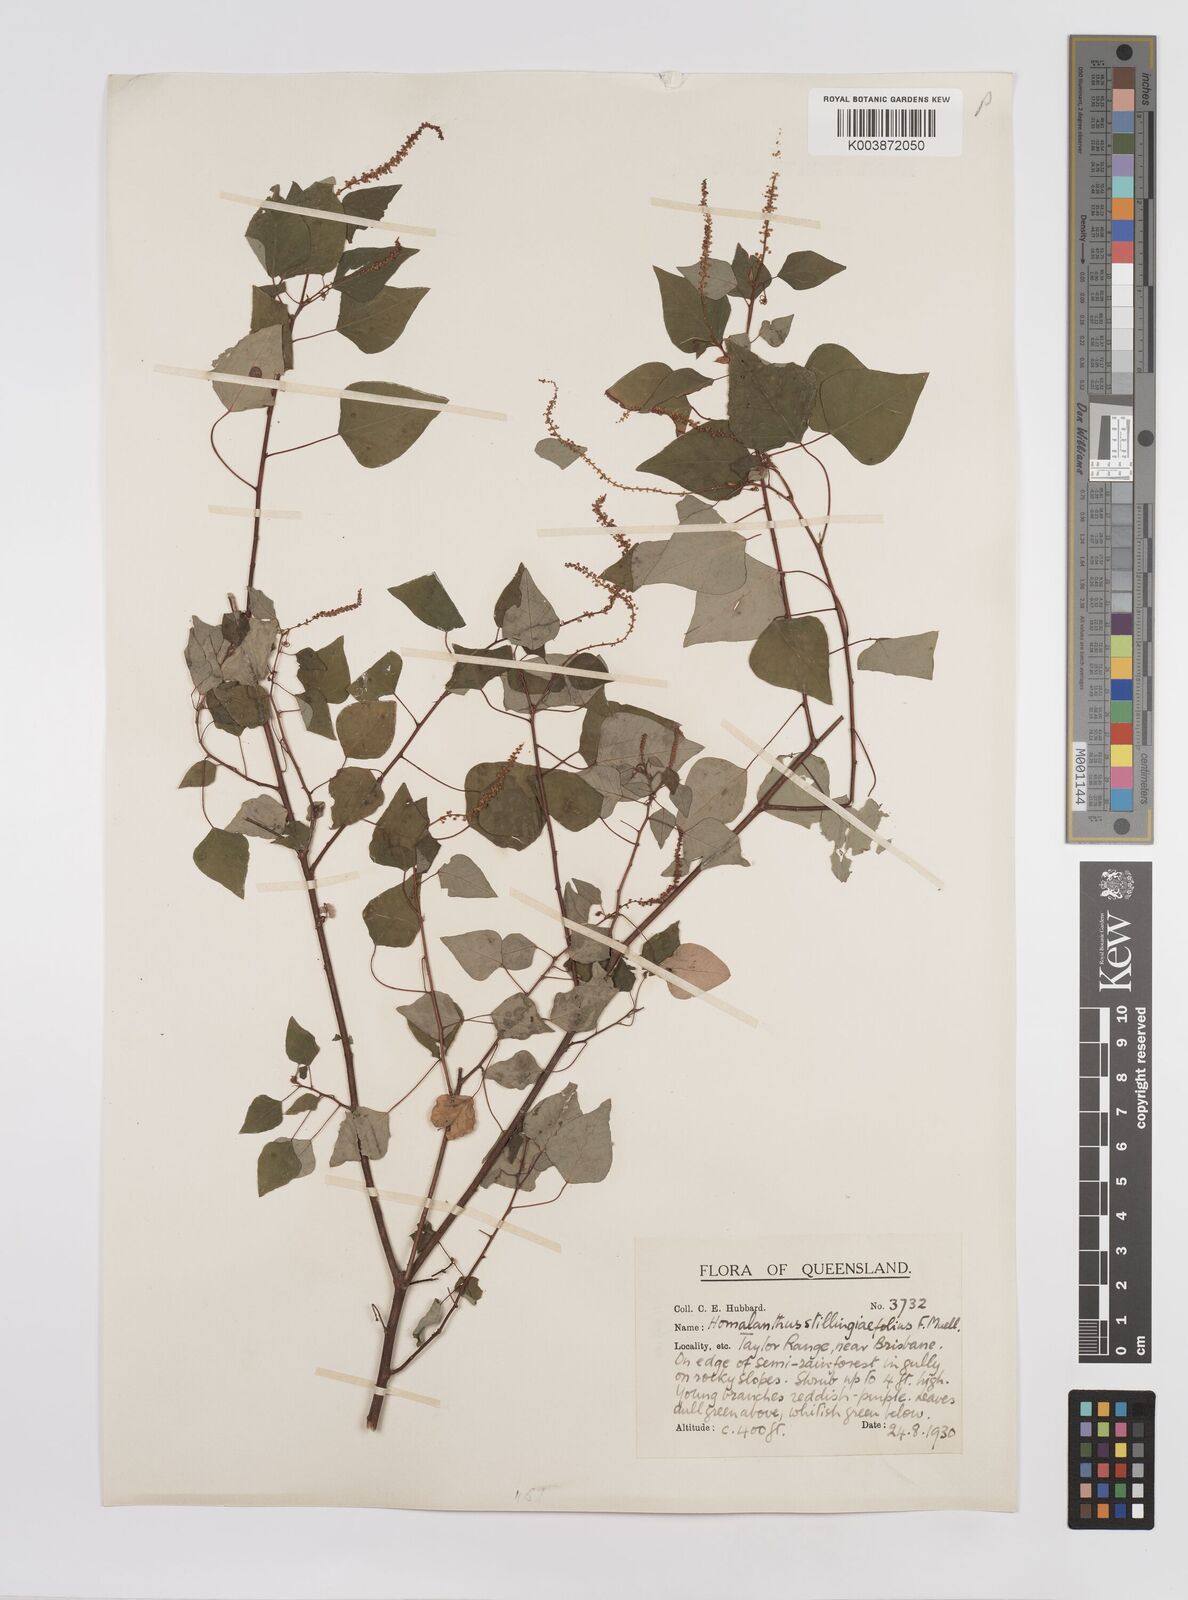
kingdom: Plantae
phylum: Tracheophyta
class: Magnoliopsida
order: Malpighiales
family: Euphorbiaceae
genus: Homalanthus
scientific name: Homalanthus stillingifolius
